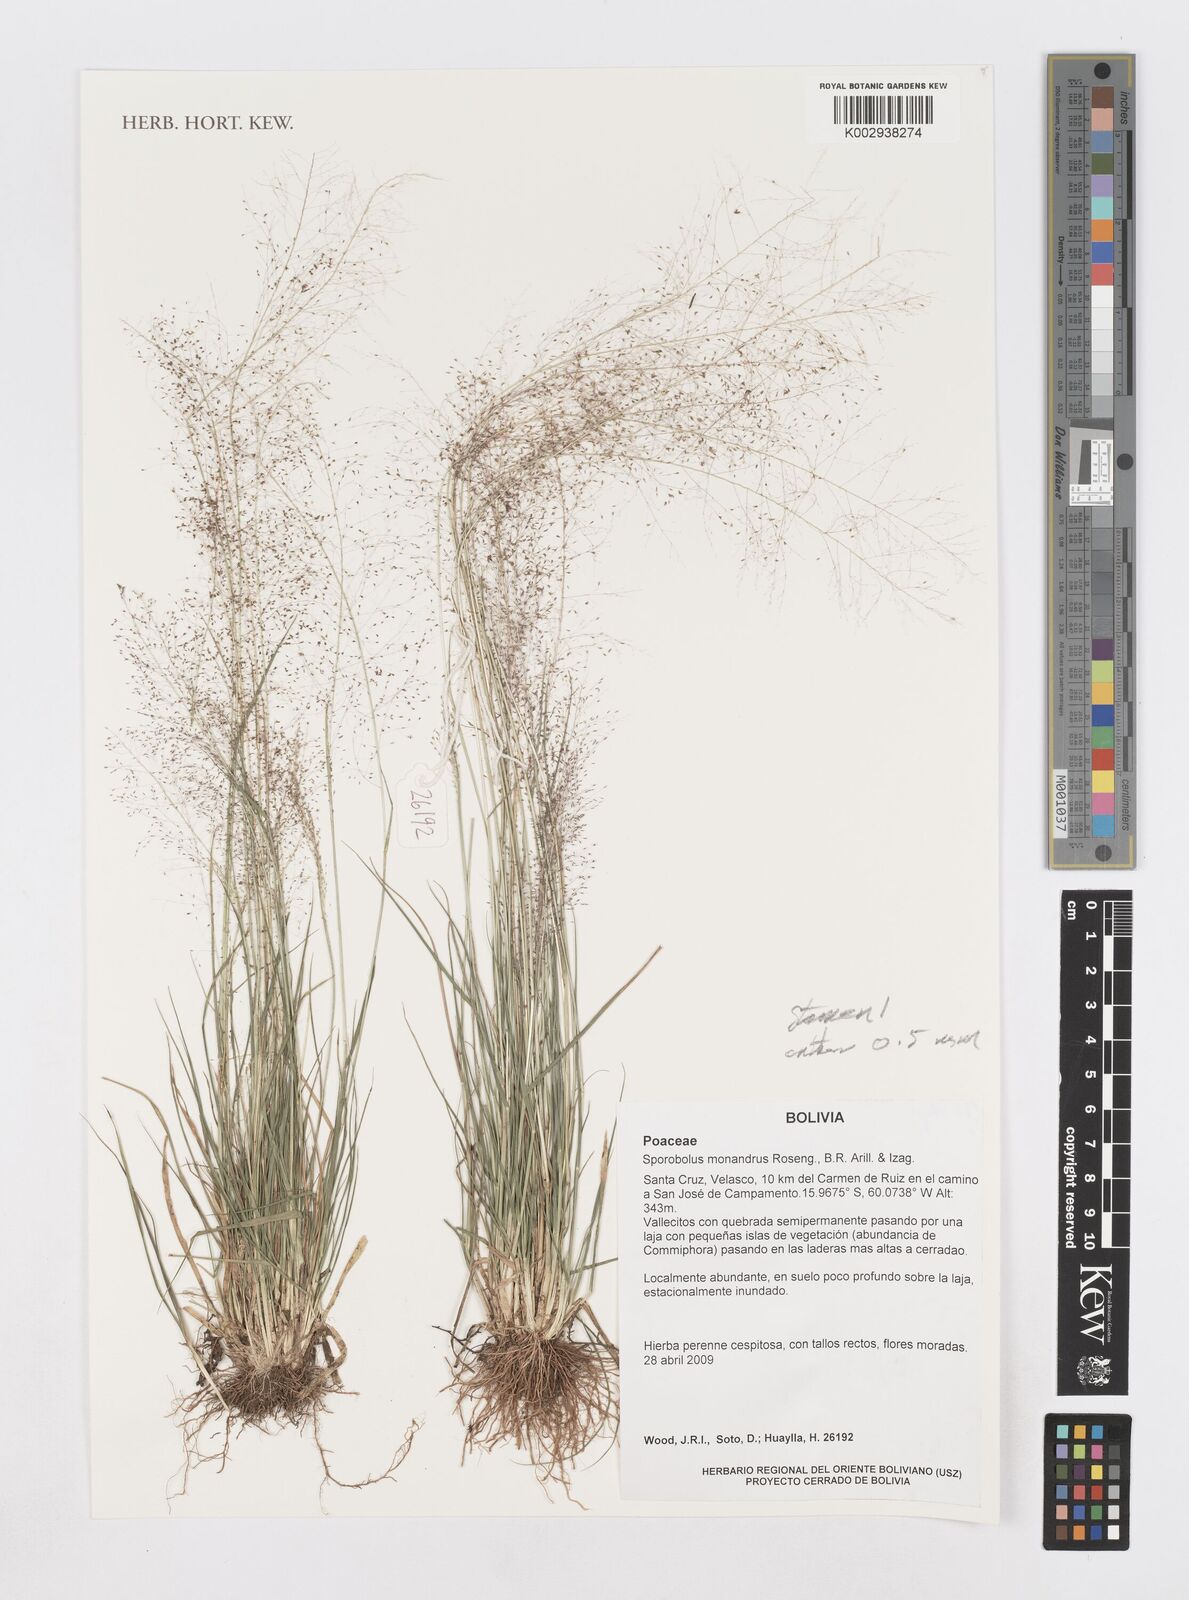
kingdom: Plantae
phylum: Tracheophyta
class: Liliopsida
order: Poales
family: Poaceae
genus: Sporobolus
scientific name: Sporobolus monandrus
